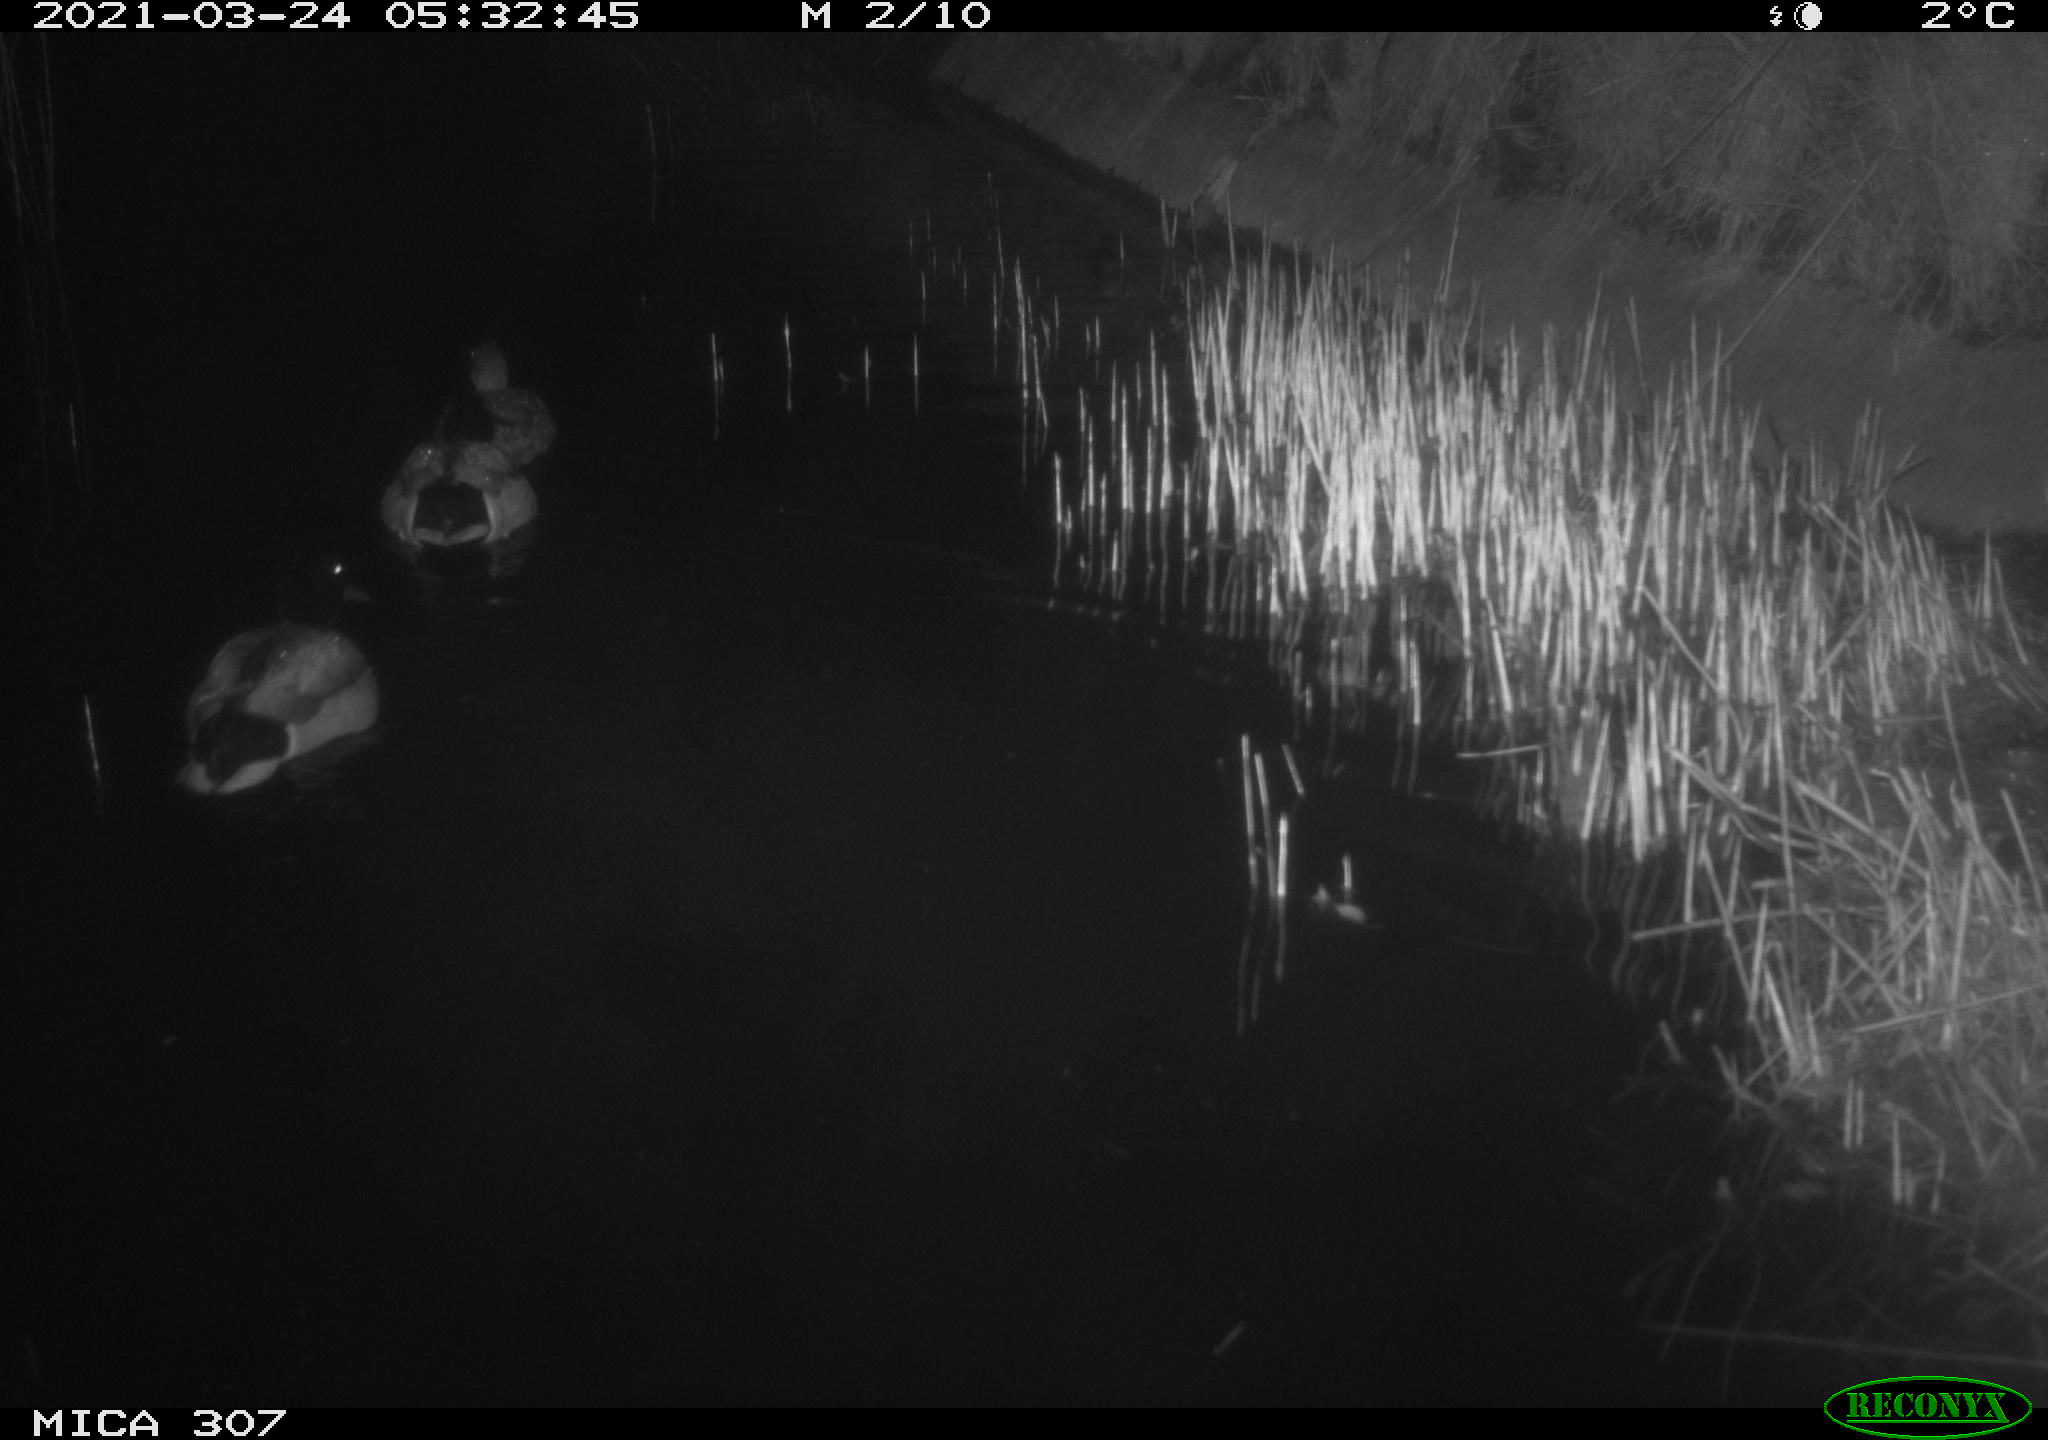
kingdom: Animalia
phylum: Chordata
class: Aves
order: Anseriformes
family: Anatidae
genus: Anas
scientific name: Anas platyrhynchos
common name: Mallard
